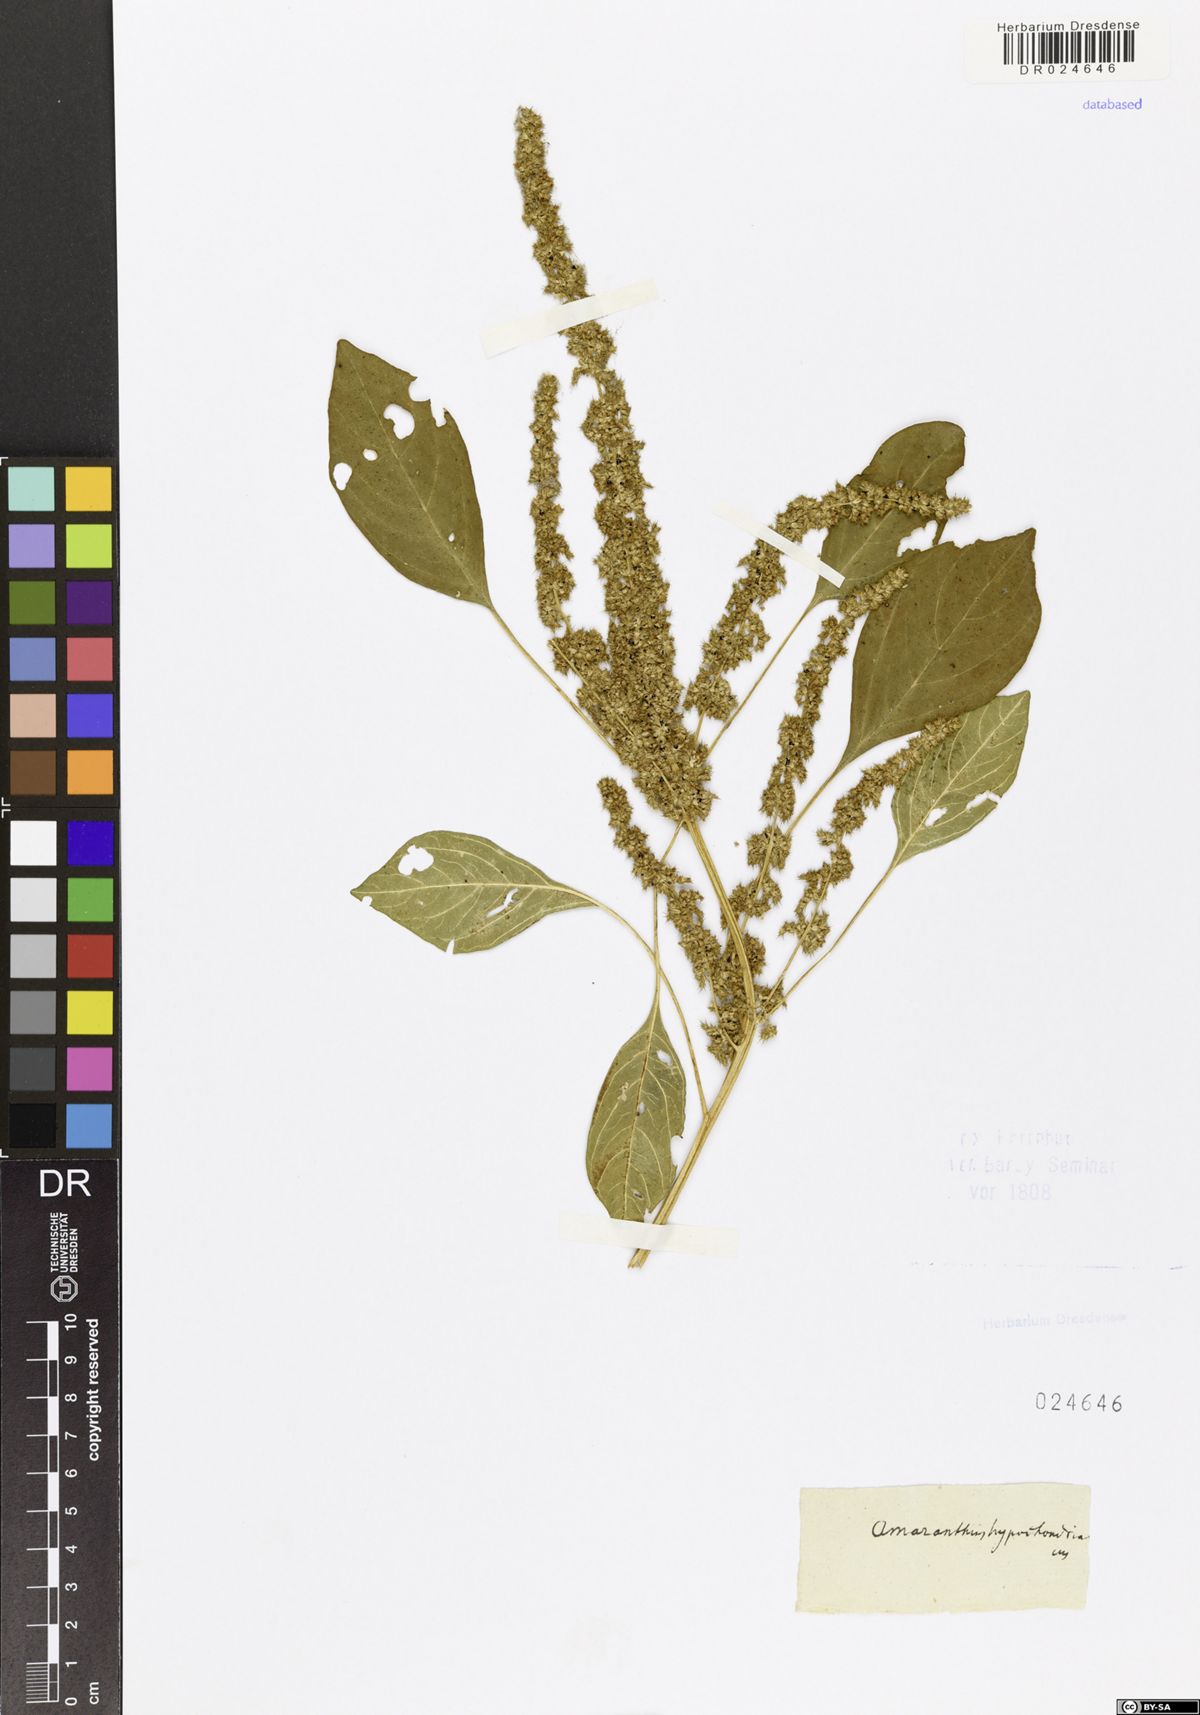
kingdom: Plantae
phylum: Tracheophyta
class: Magnoliopsida
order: Caryophyllales
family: Amaranthaceae
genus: Amaranthus
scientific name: Amaranthus hypochondriacus
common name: Prince's-feather
